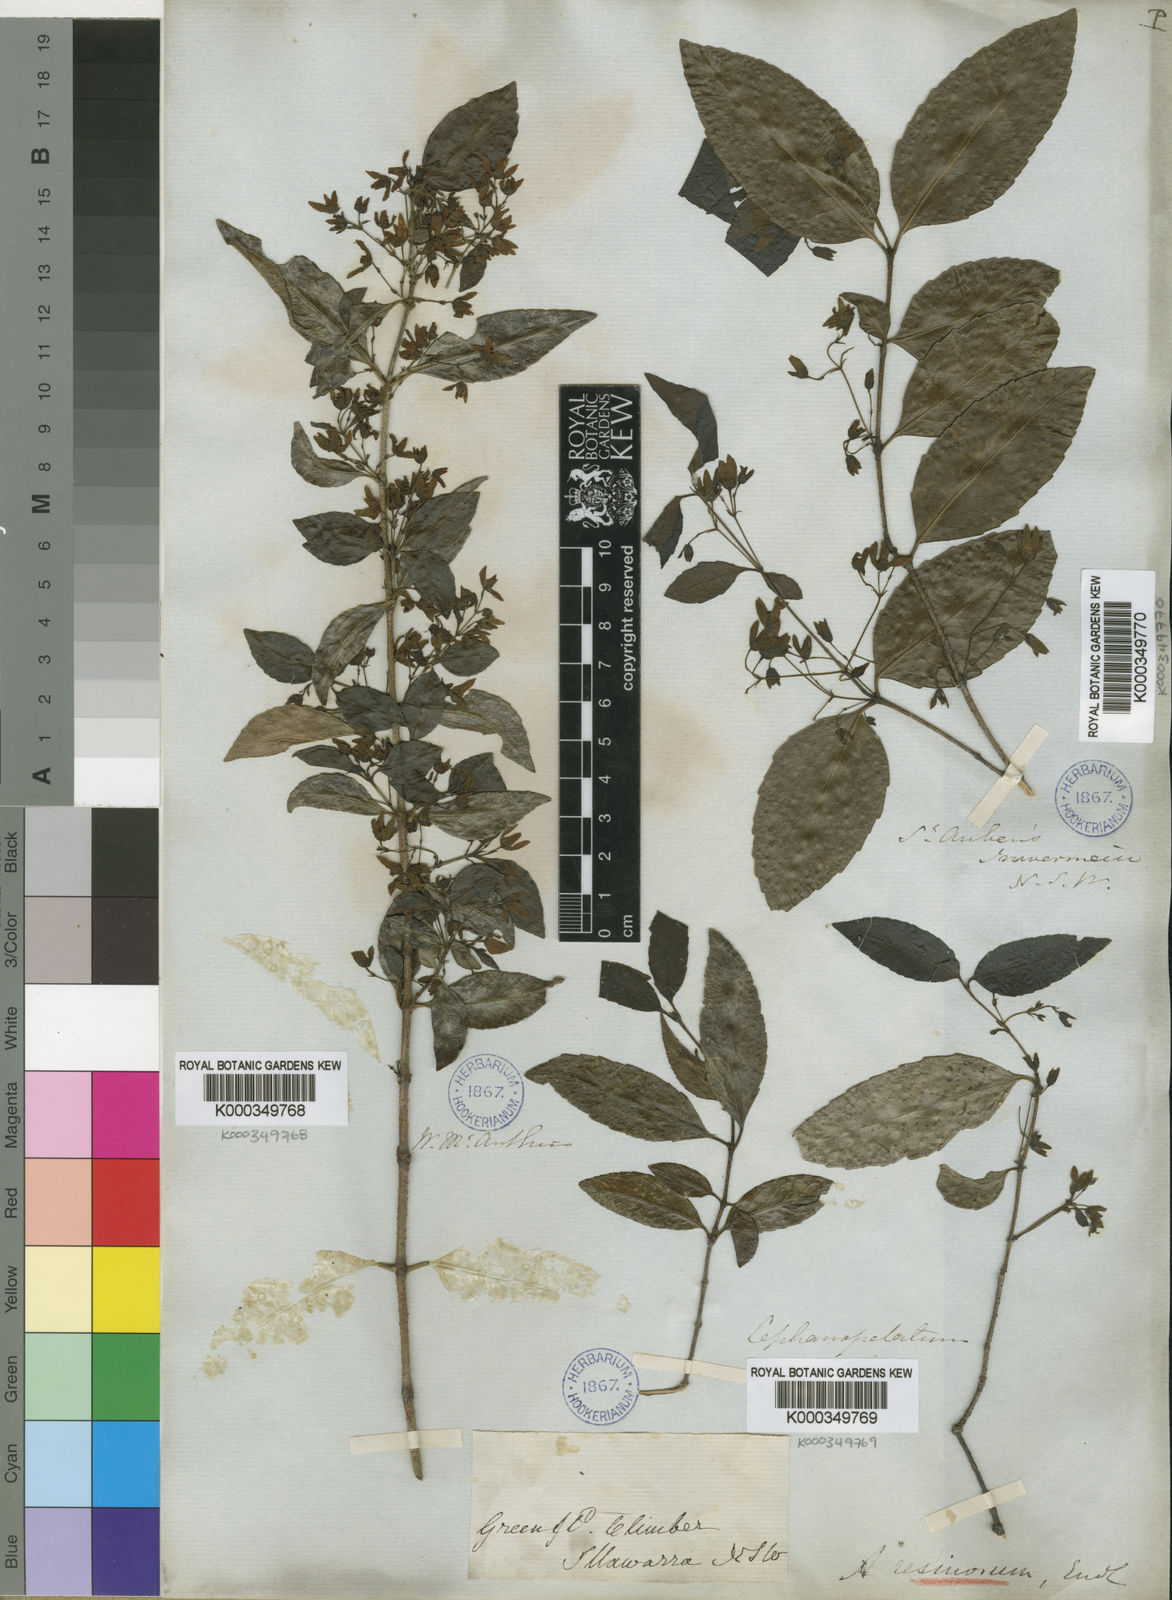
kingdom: Plantae
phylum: Tracheophyta
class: Magnoliopsida
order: Saxifragales
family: Aphanopetalaceae
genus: Aphanopetalum
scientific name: Aphanopetalum resinosum
